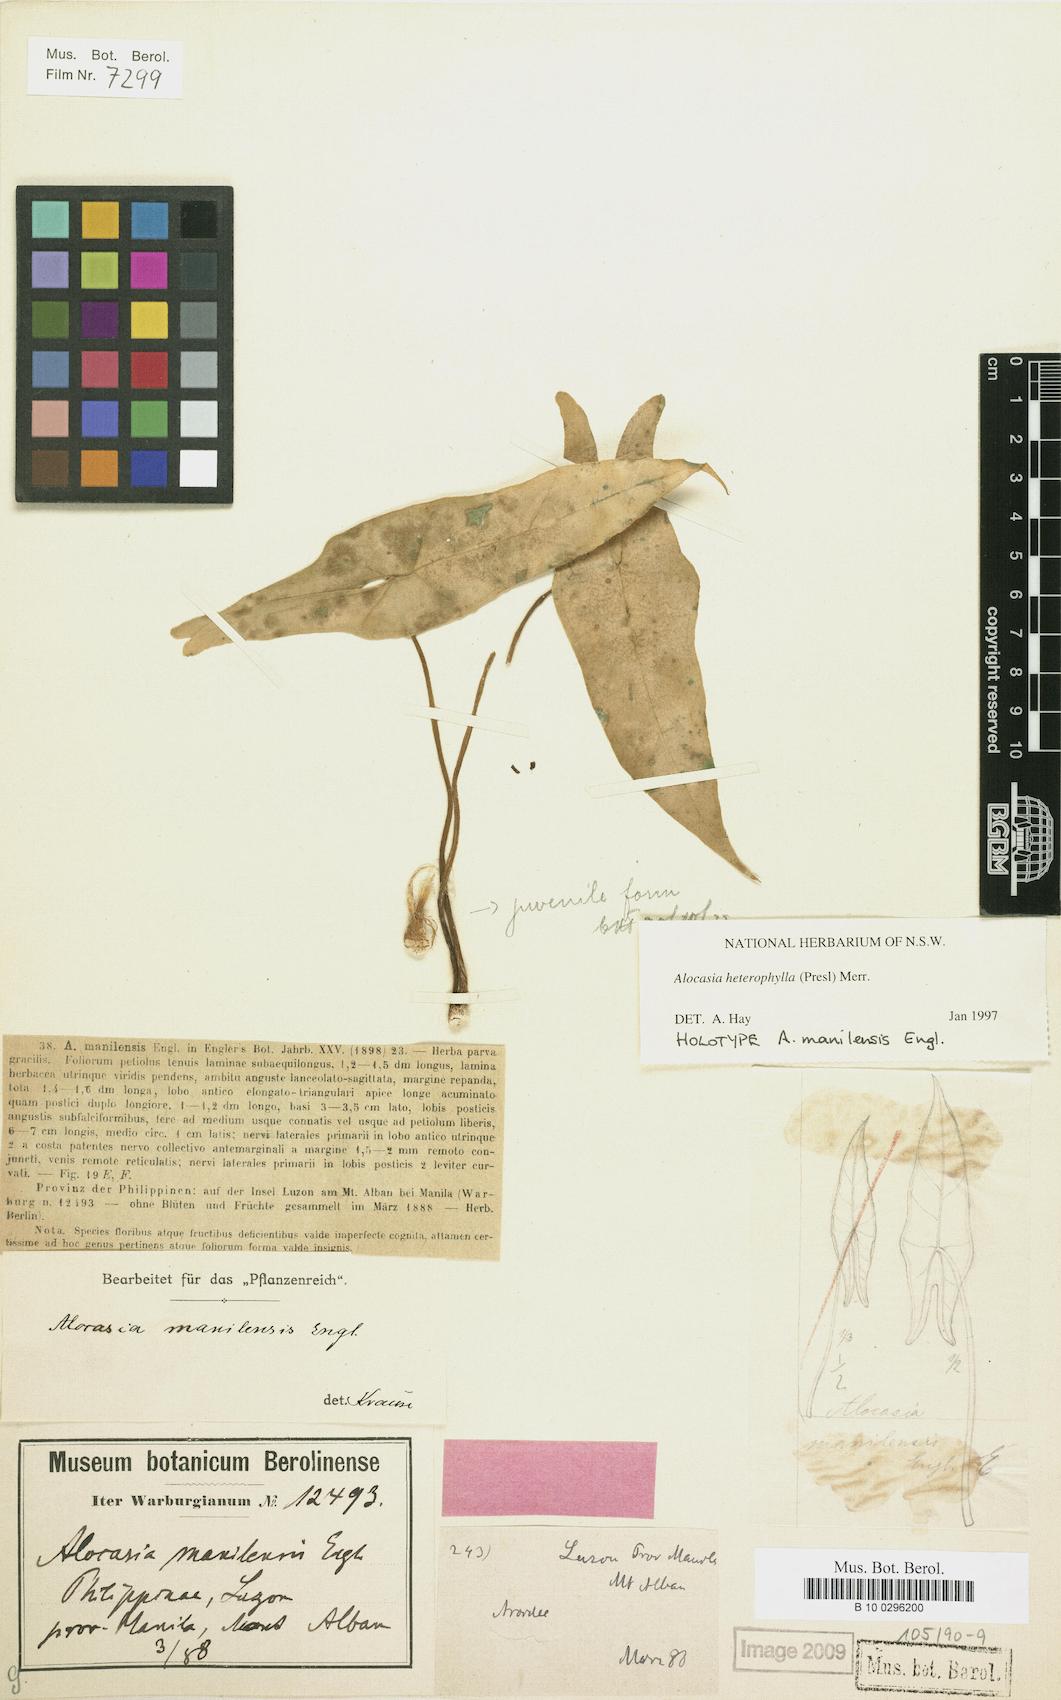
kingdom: Plantae
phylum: Tracheophyta
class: Liliopsida
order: Alismatales
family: Araceae
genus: Alocasia
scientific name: Alocasia heterophylla
